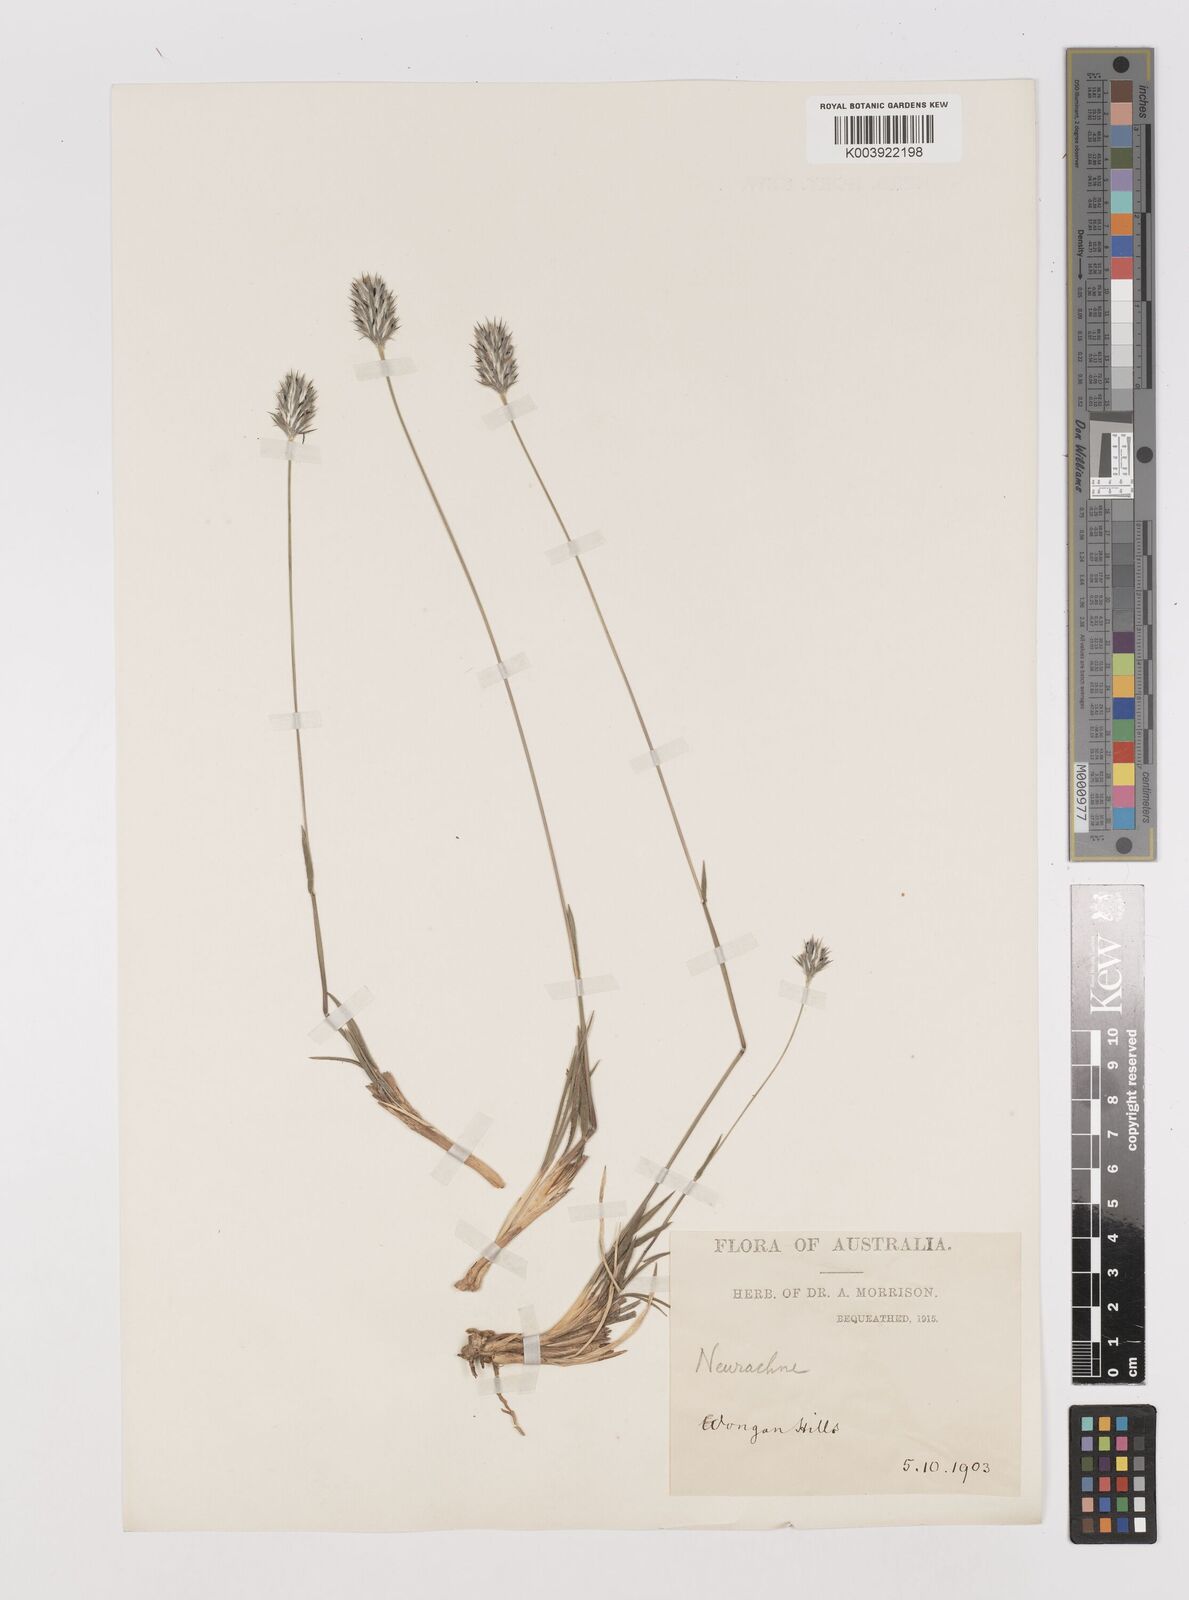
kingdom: Plantae
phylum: Tracheophyta
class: Liliopsida
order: Poales
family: Poaceae
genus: Neurachne
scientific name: Neurachne alopecuroidea
